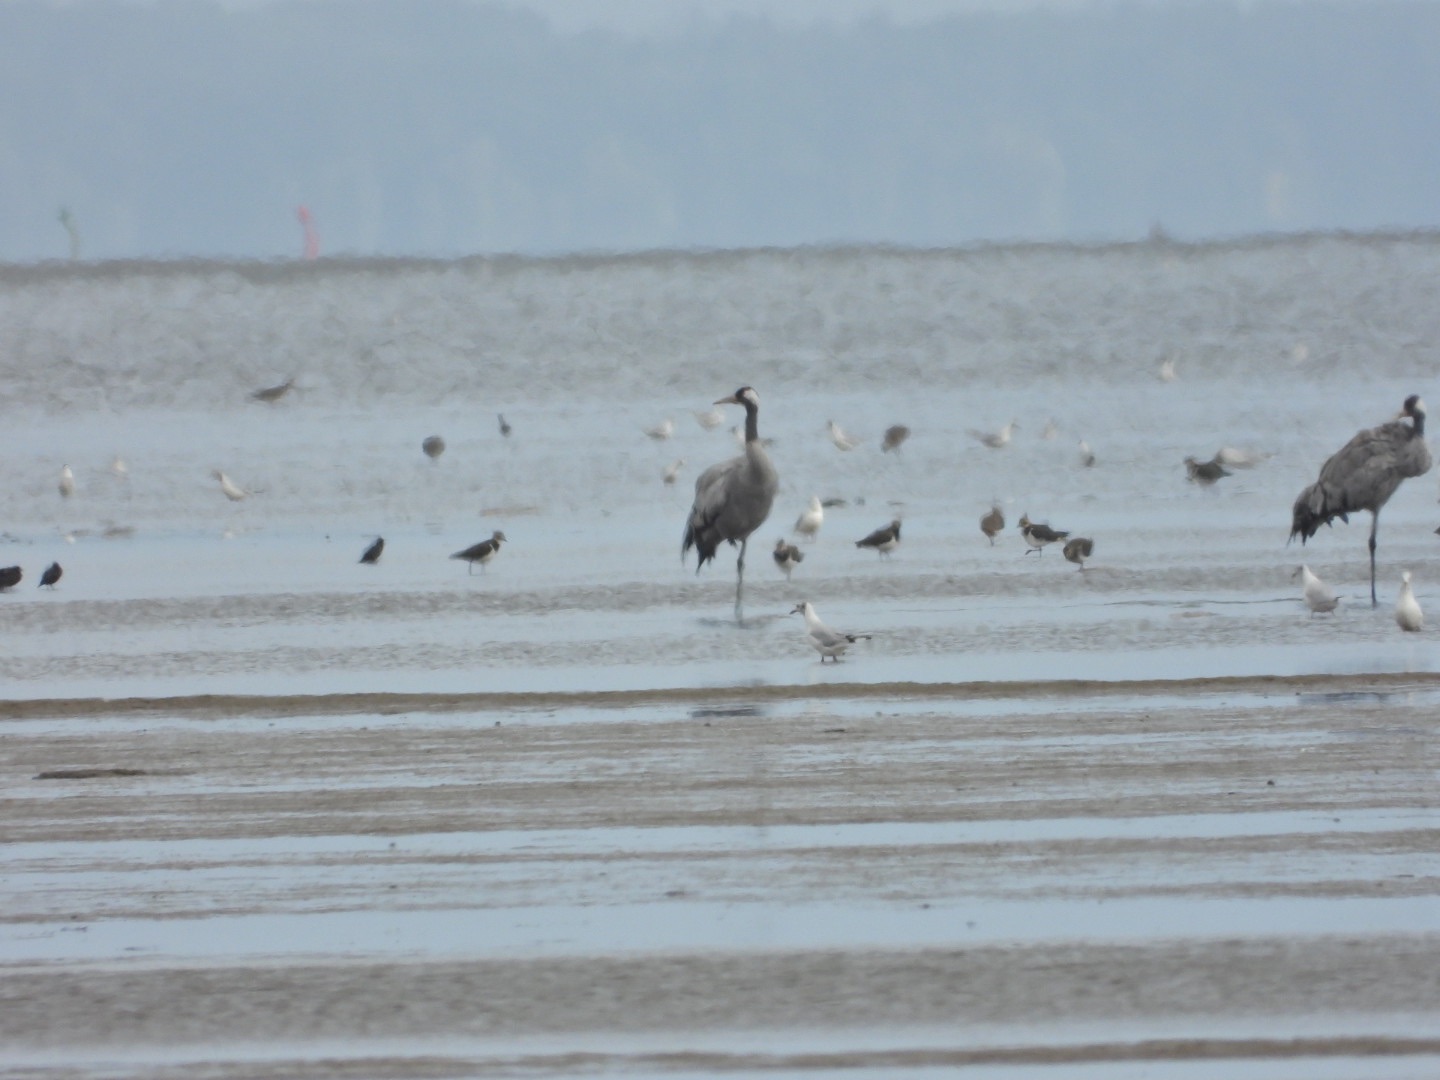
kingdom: Animalia
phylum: Chordata
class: Aves
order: Gruiformes
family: Gruidae
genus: Grus
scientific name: Grus grus
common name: Trane
